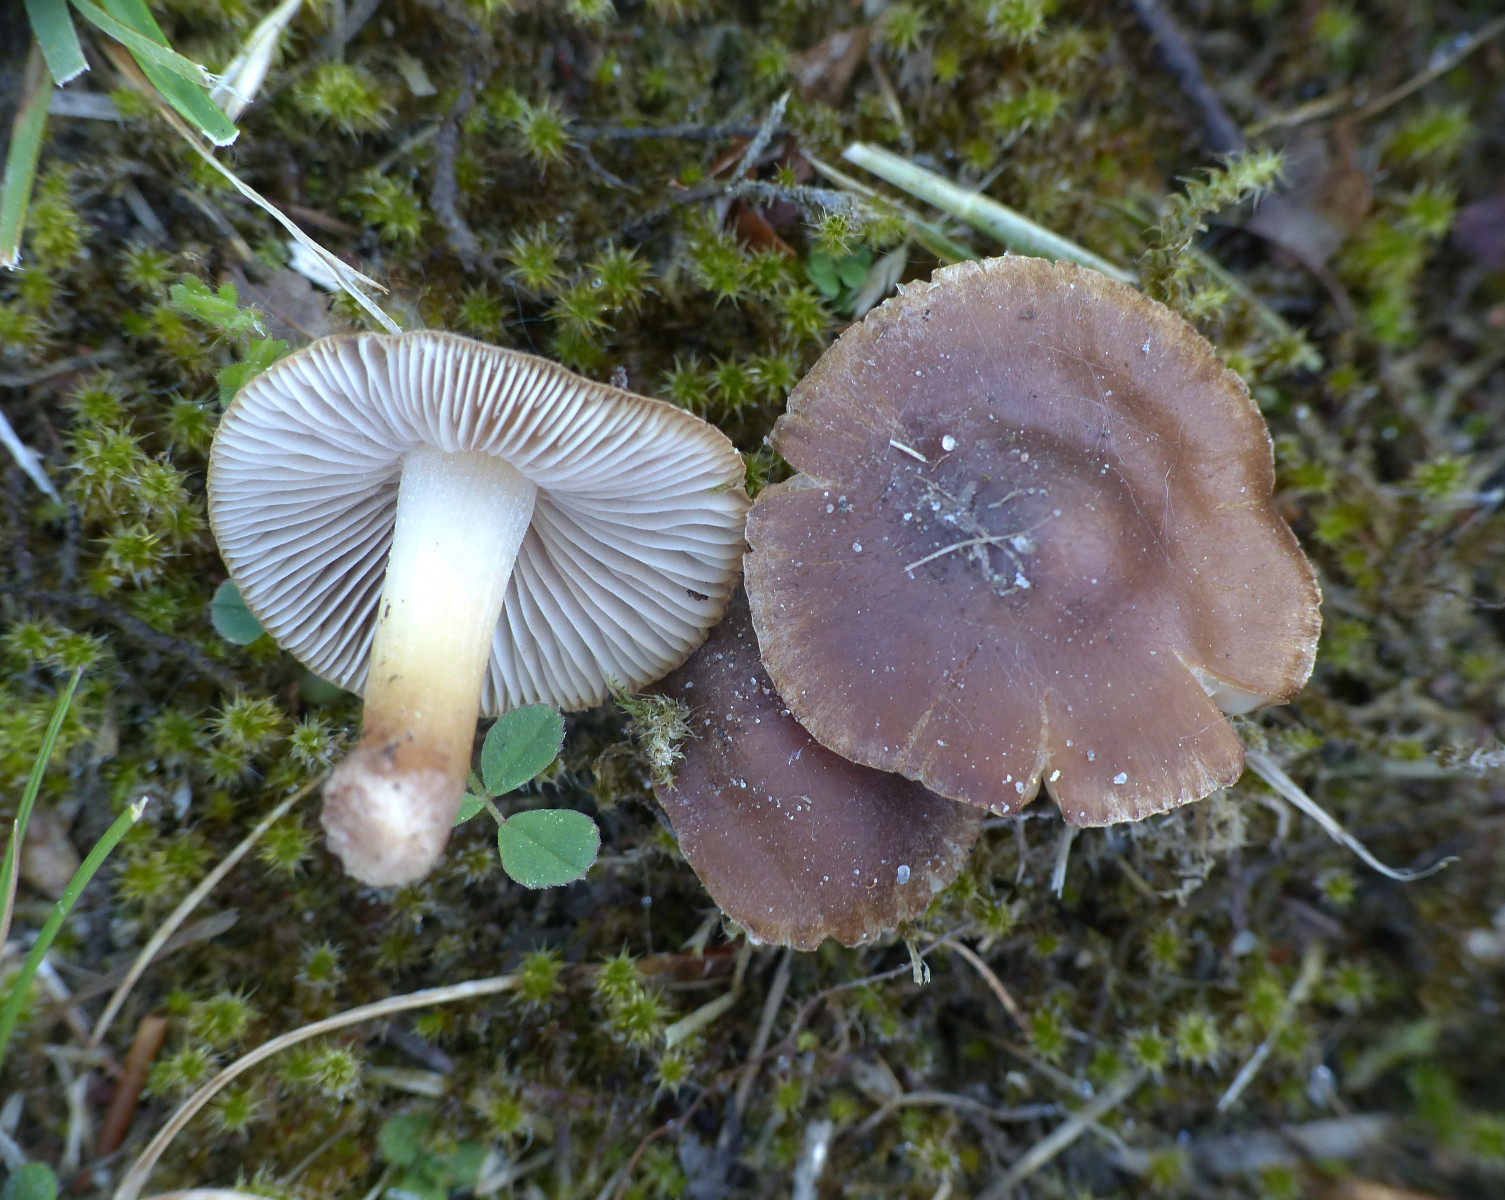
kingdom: Fungi
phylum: Basidiomycota
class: Agaricomycetes
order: Agaricales
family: Inocybaceae
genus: Inocybe
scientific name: Inocybe
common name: trævlhat
